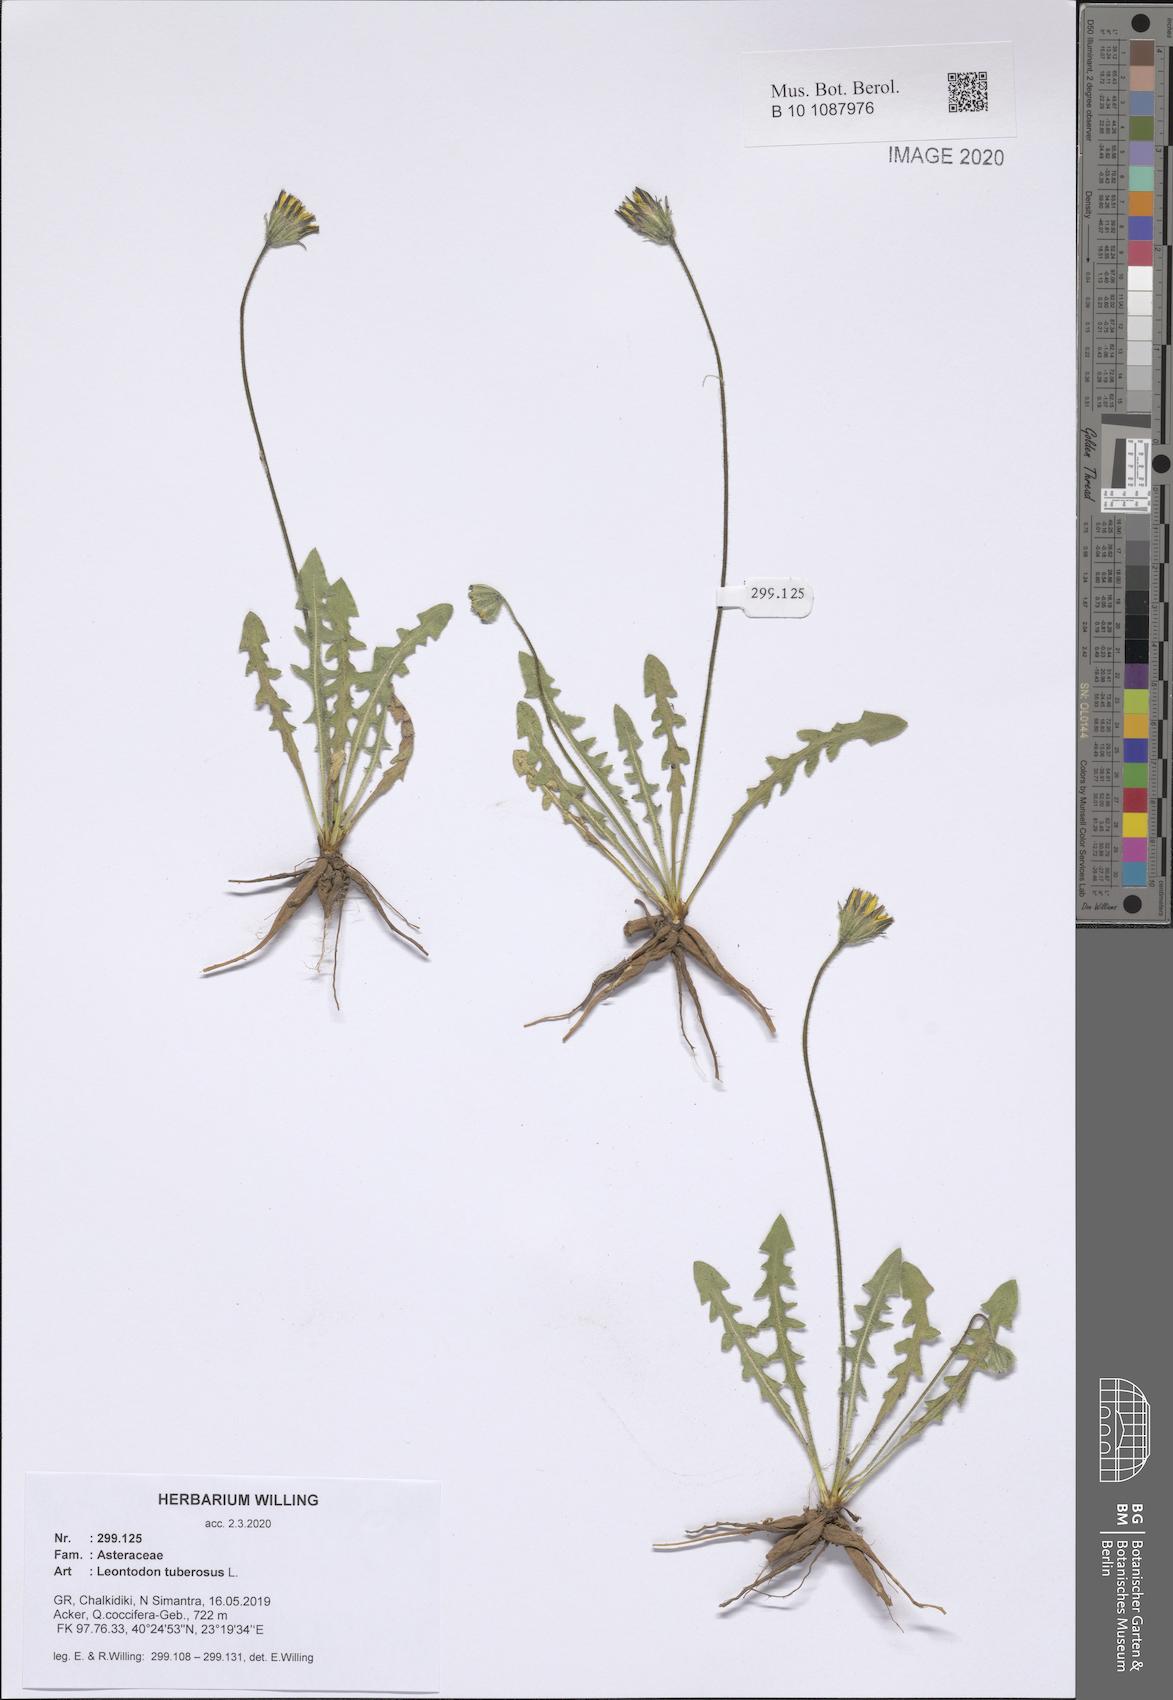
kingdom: Plantae
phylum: Tracheophyta
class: Magnoliopsida
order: Asterales
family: Asteraceae
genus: Thrincia
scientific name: Thrincia tuberosa
